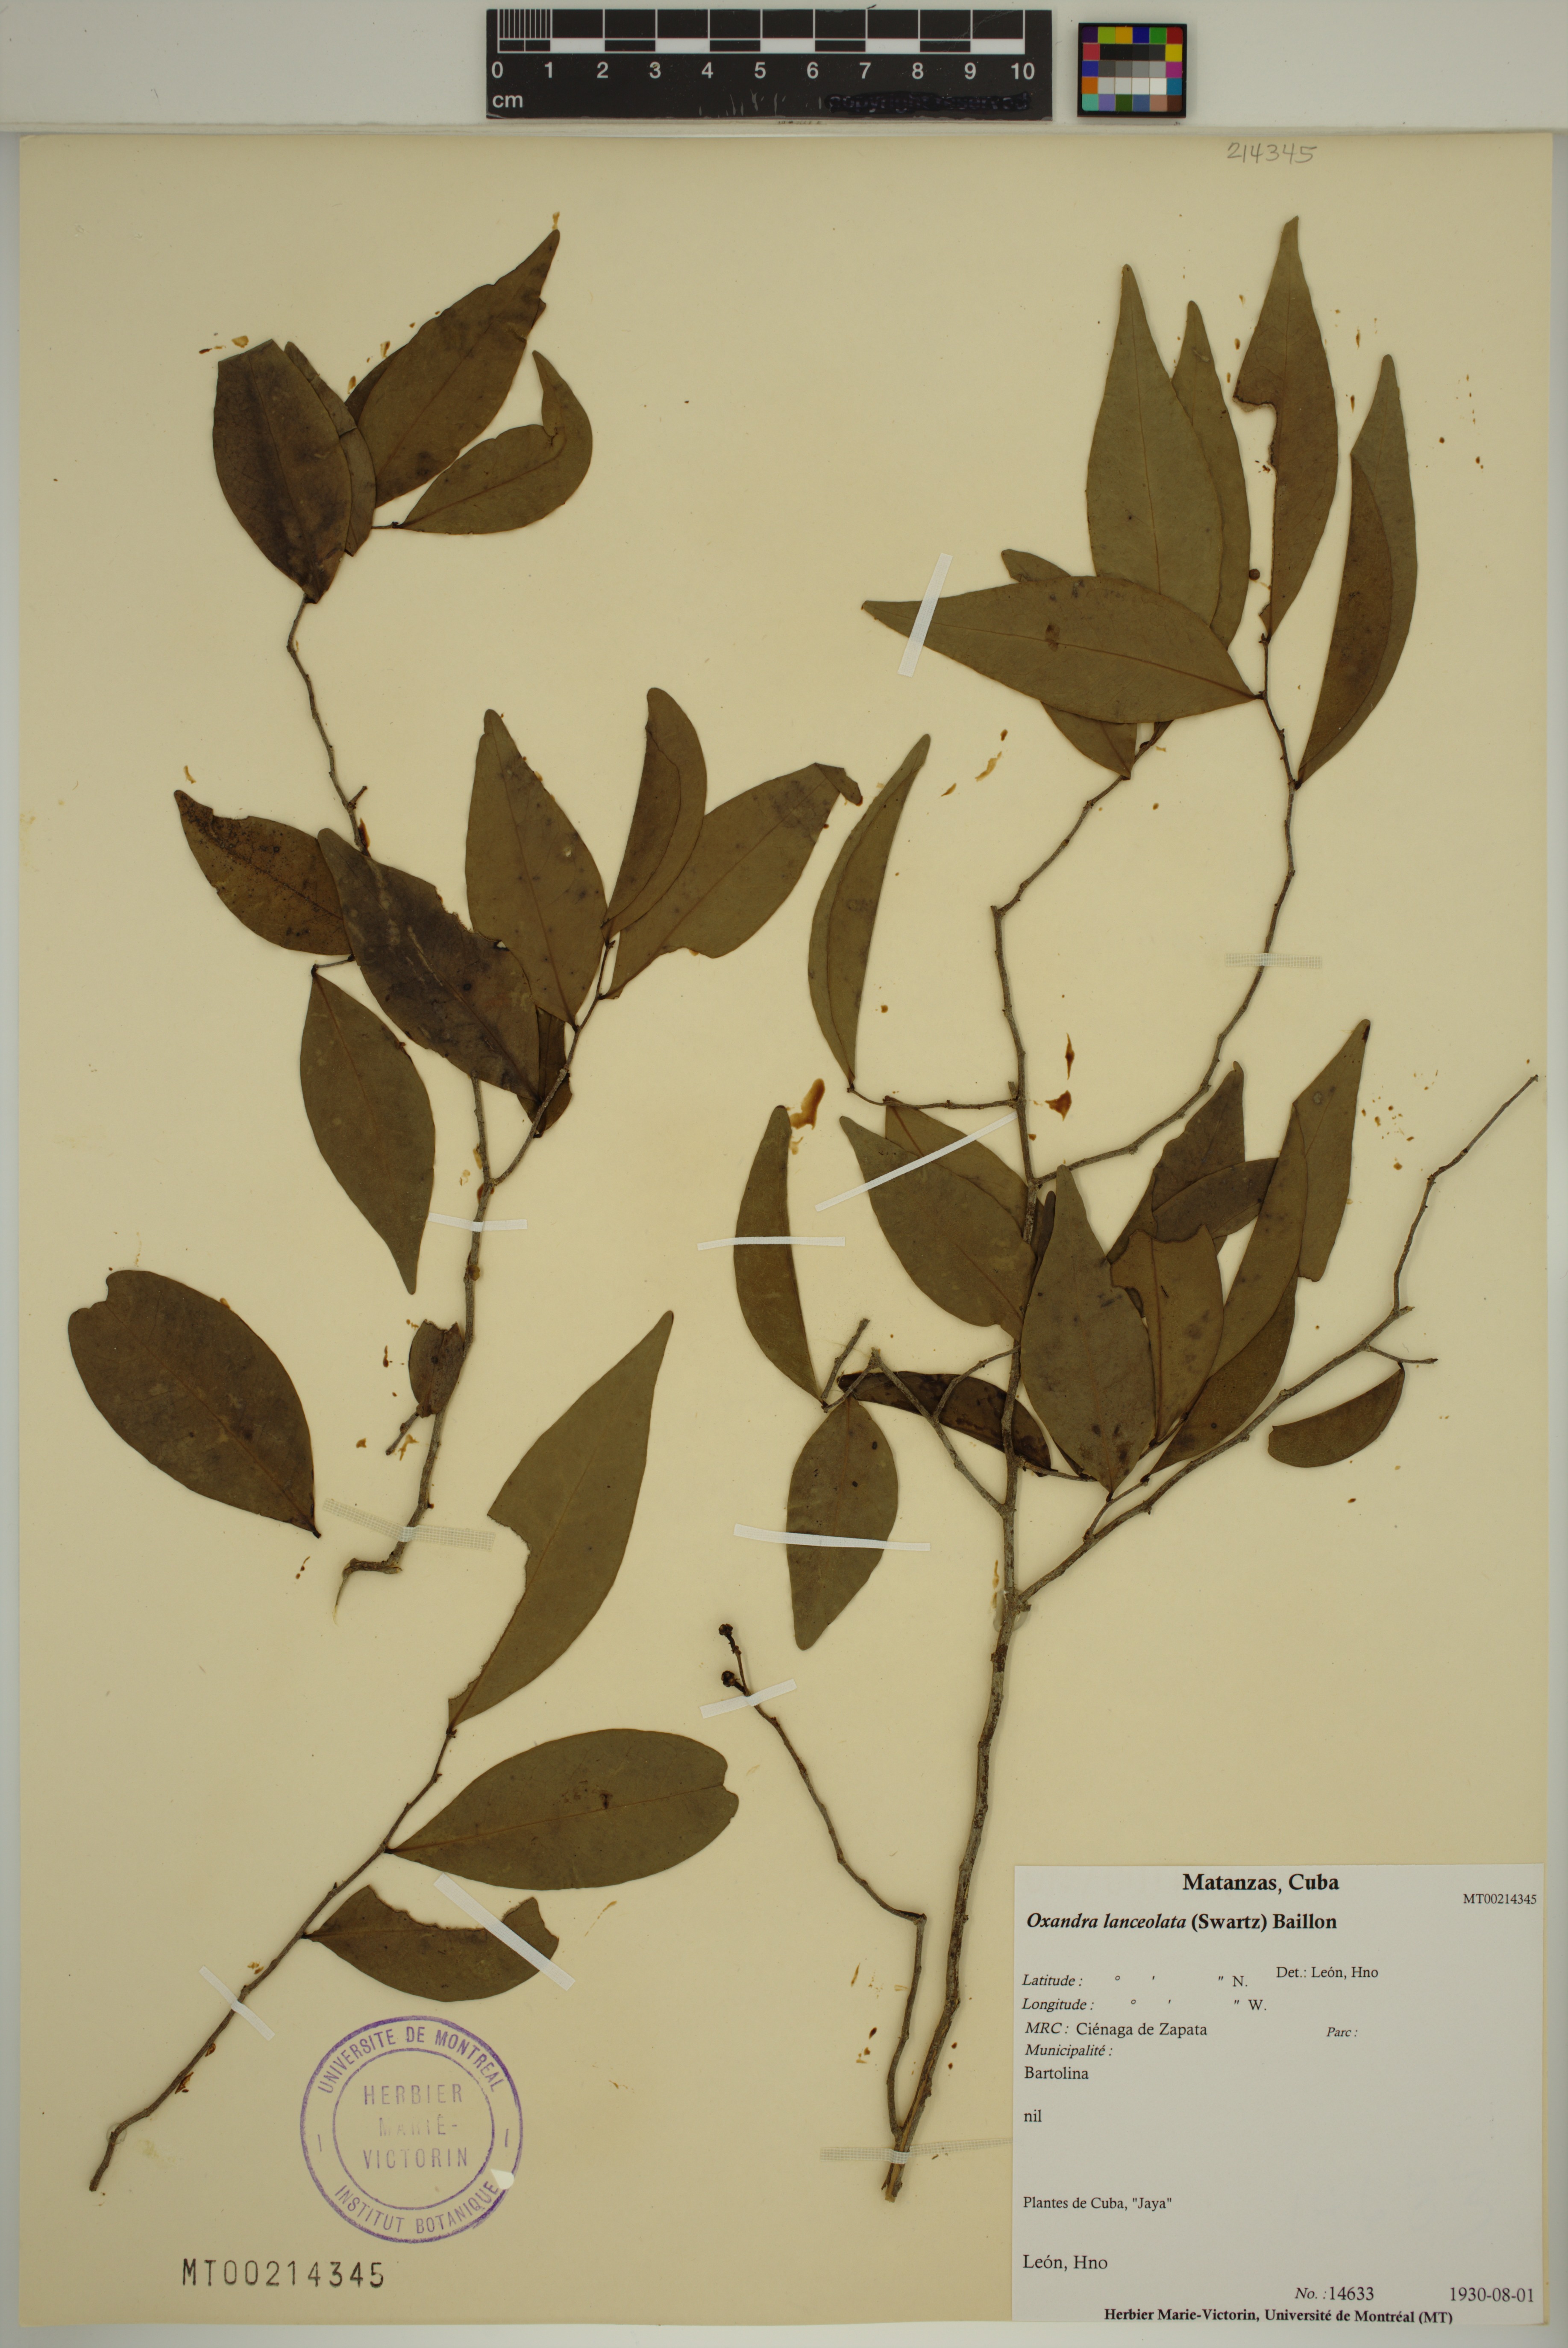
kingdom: Plantae
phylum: Tracheophyta
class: Magnoliopsida
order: Magnoliales
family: Annonaceae
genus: Oxandra
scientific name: Oxandra lanceolata
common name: Lancewood
